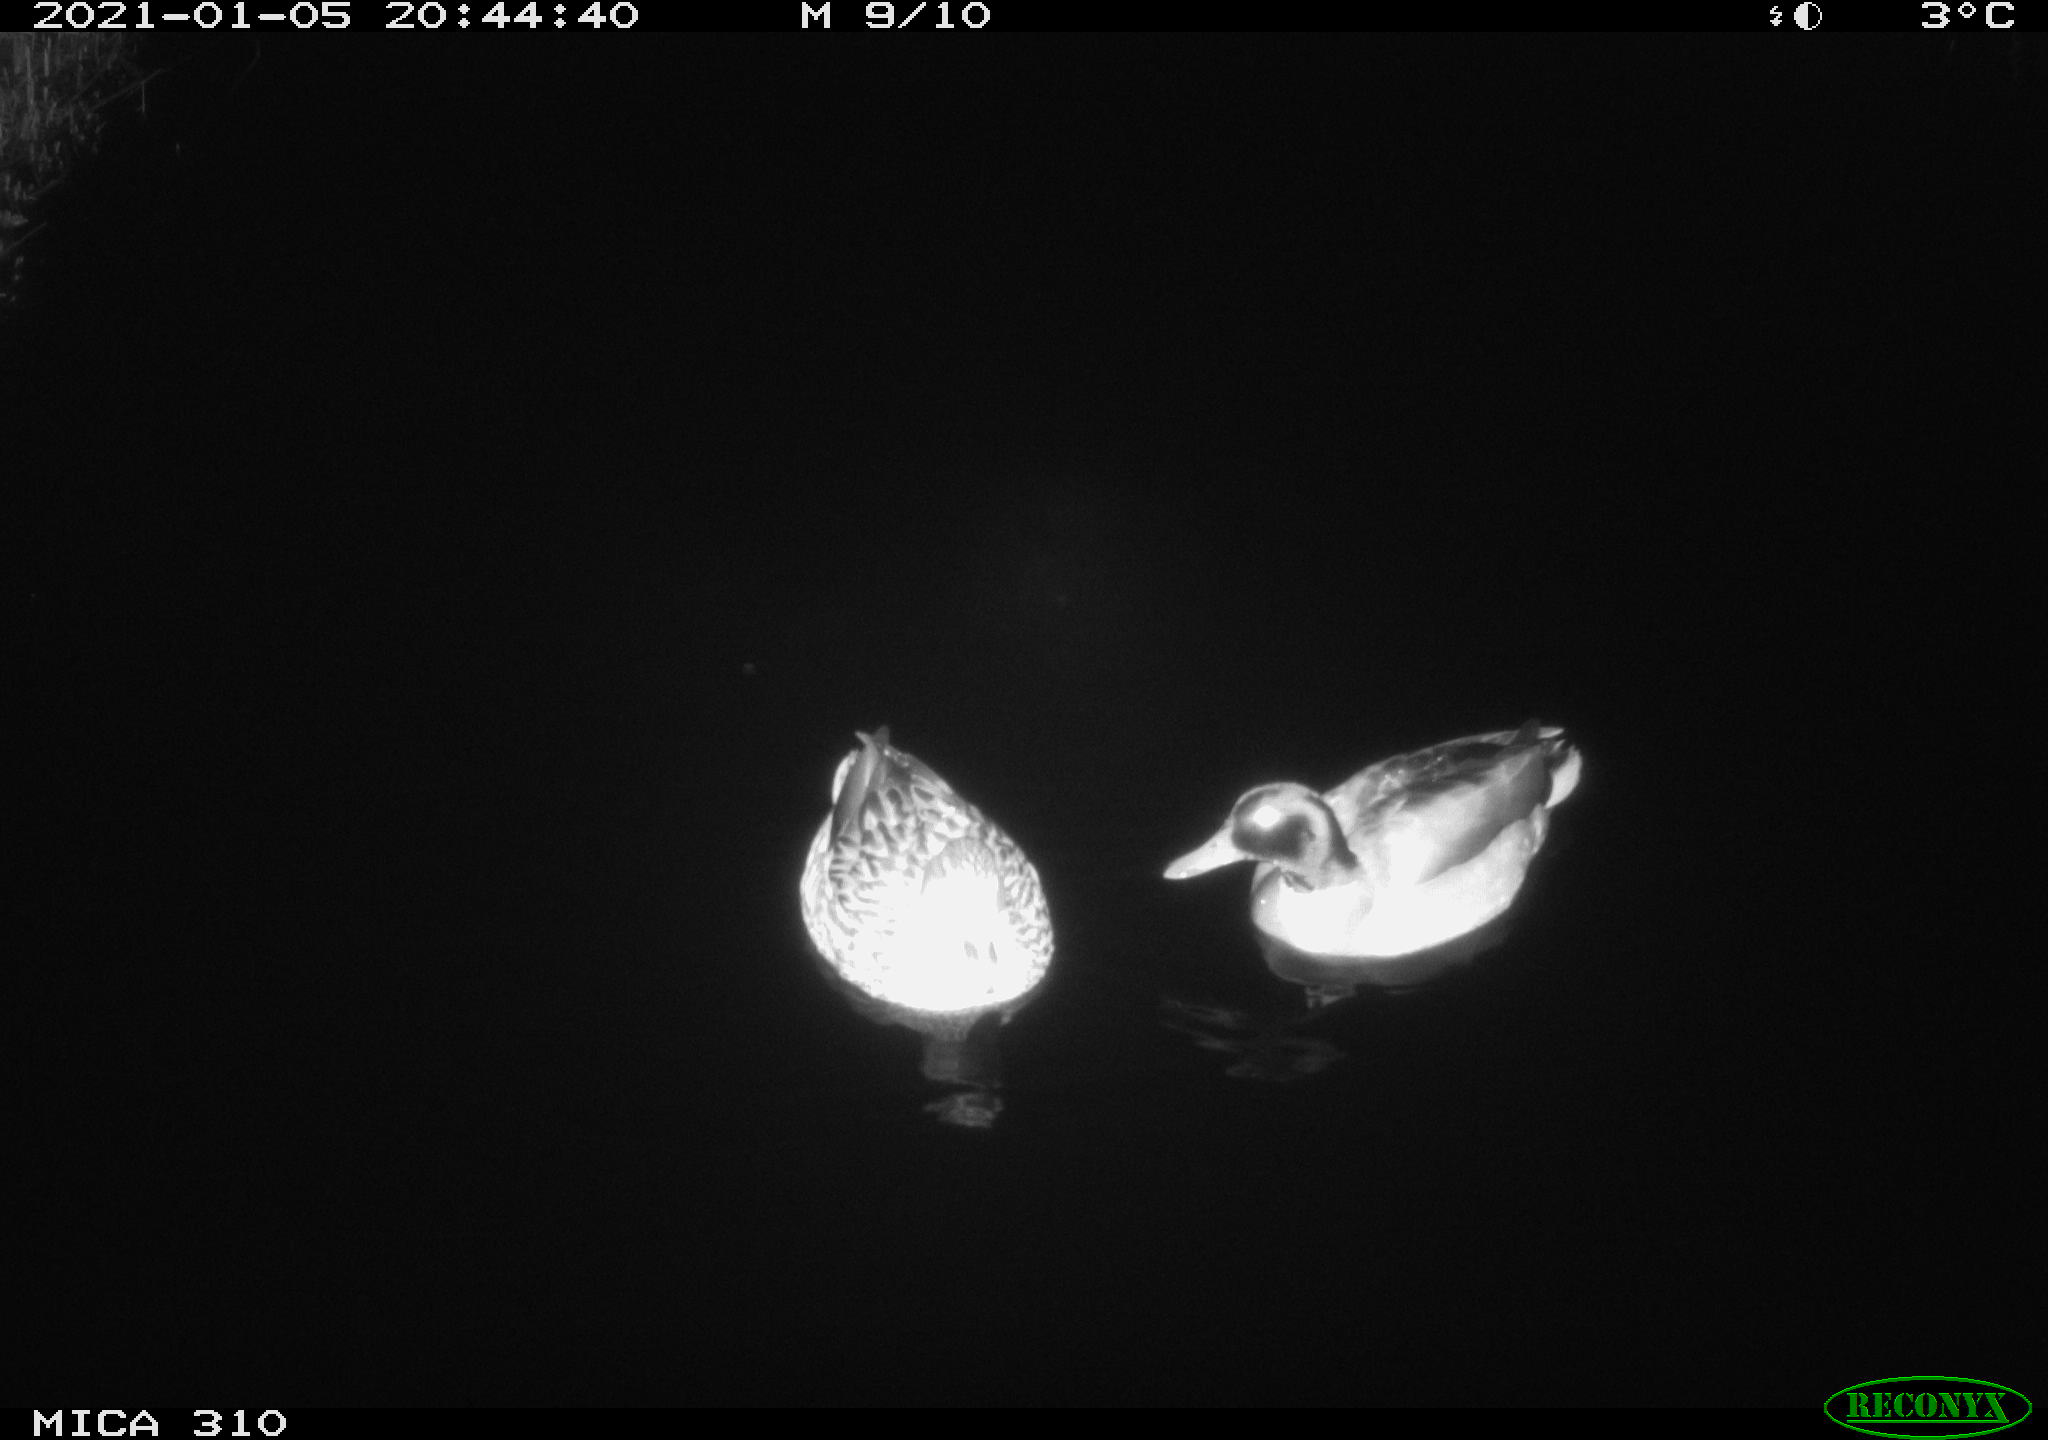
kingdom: Animalia
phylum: Chordata
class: Aves
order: Anseriformes
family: Anatidae
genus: Anas
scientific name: Anas platyrhynchos
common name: Mallard
